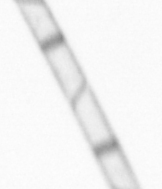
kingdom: Chromista
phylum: Ochrophyta
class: Bacillariophyceae
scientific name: Bacillariophyceae
